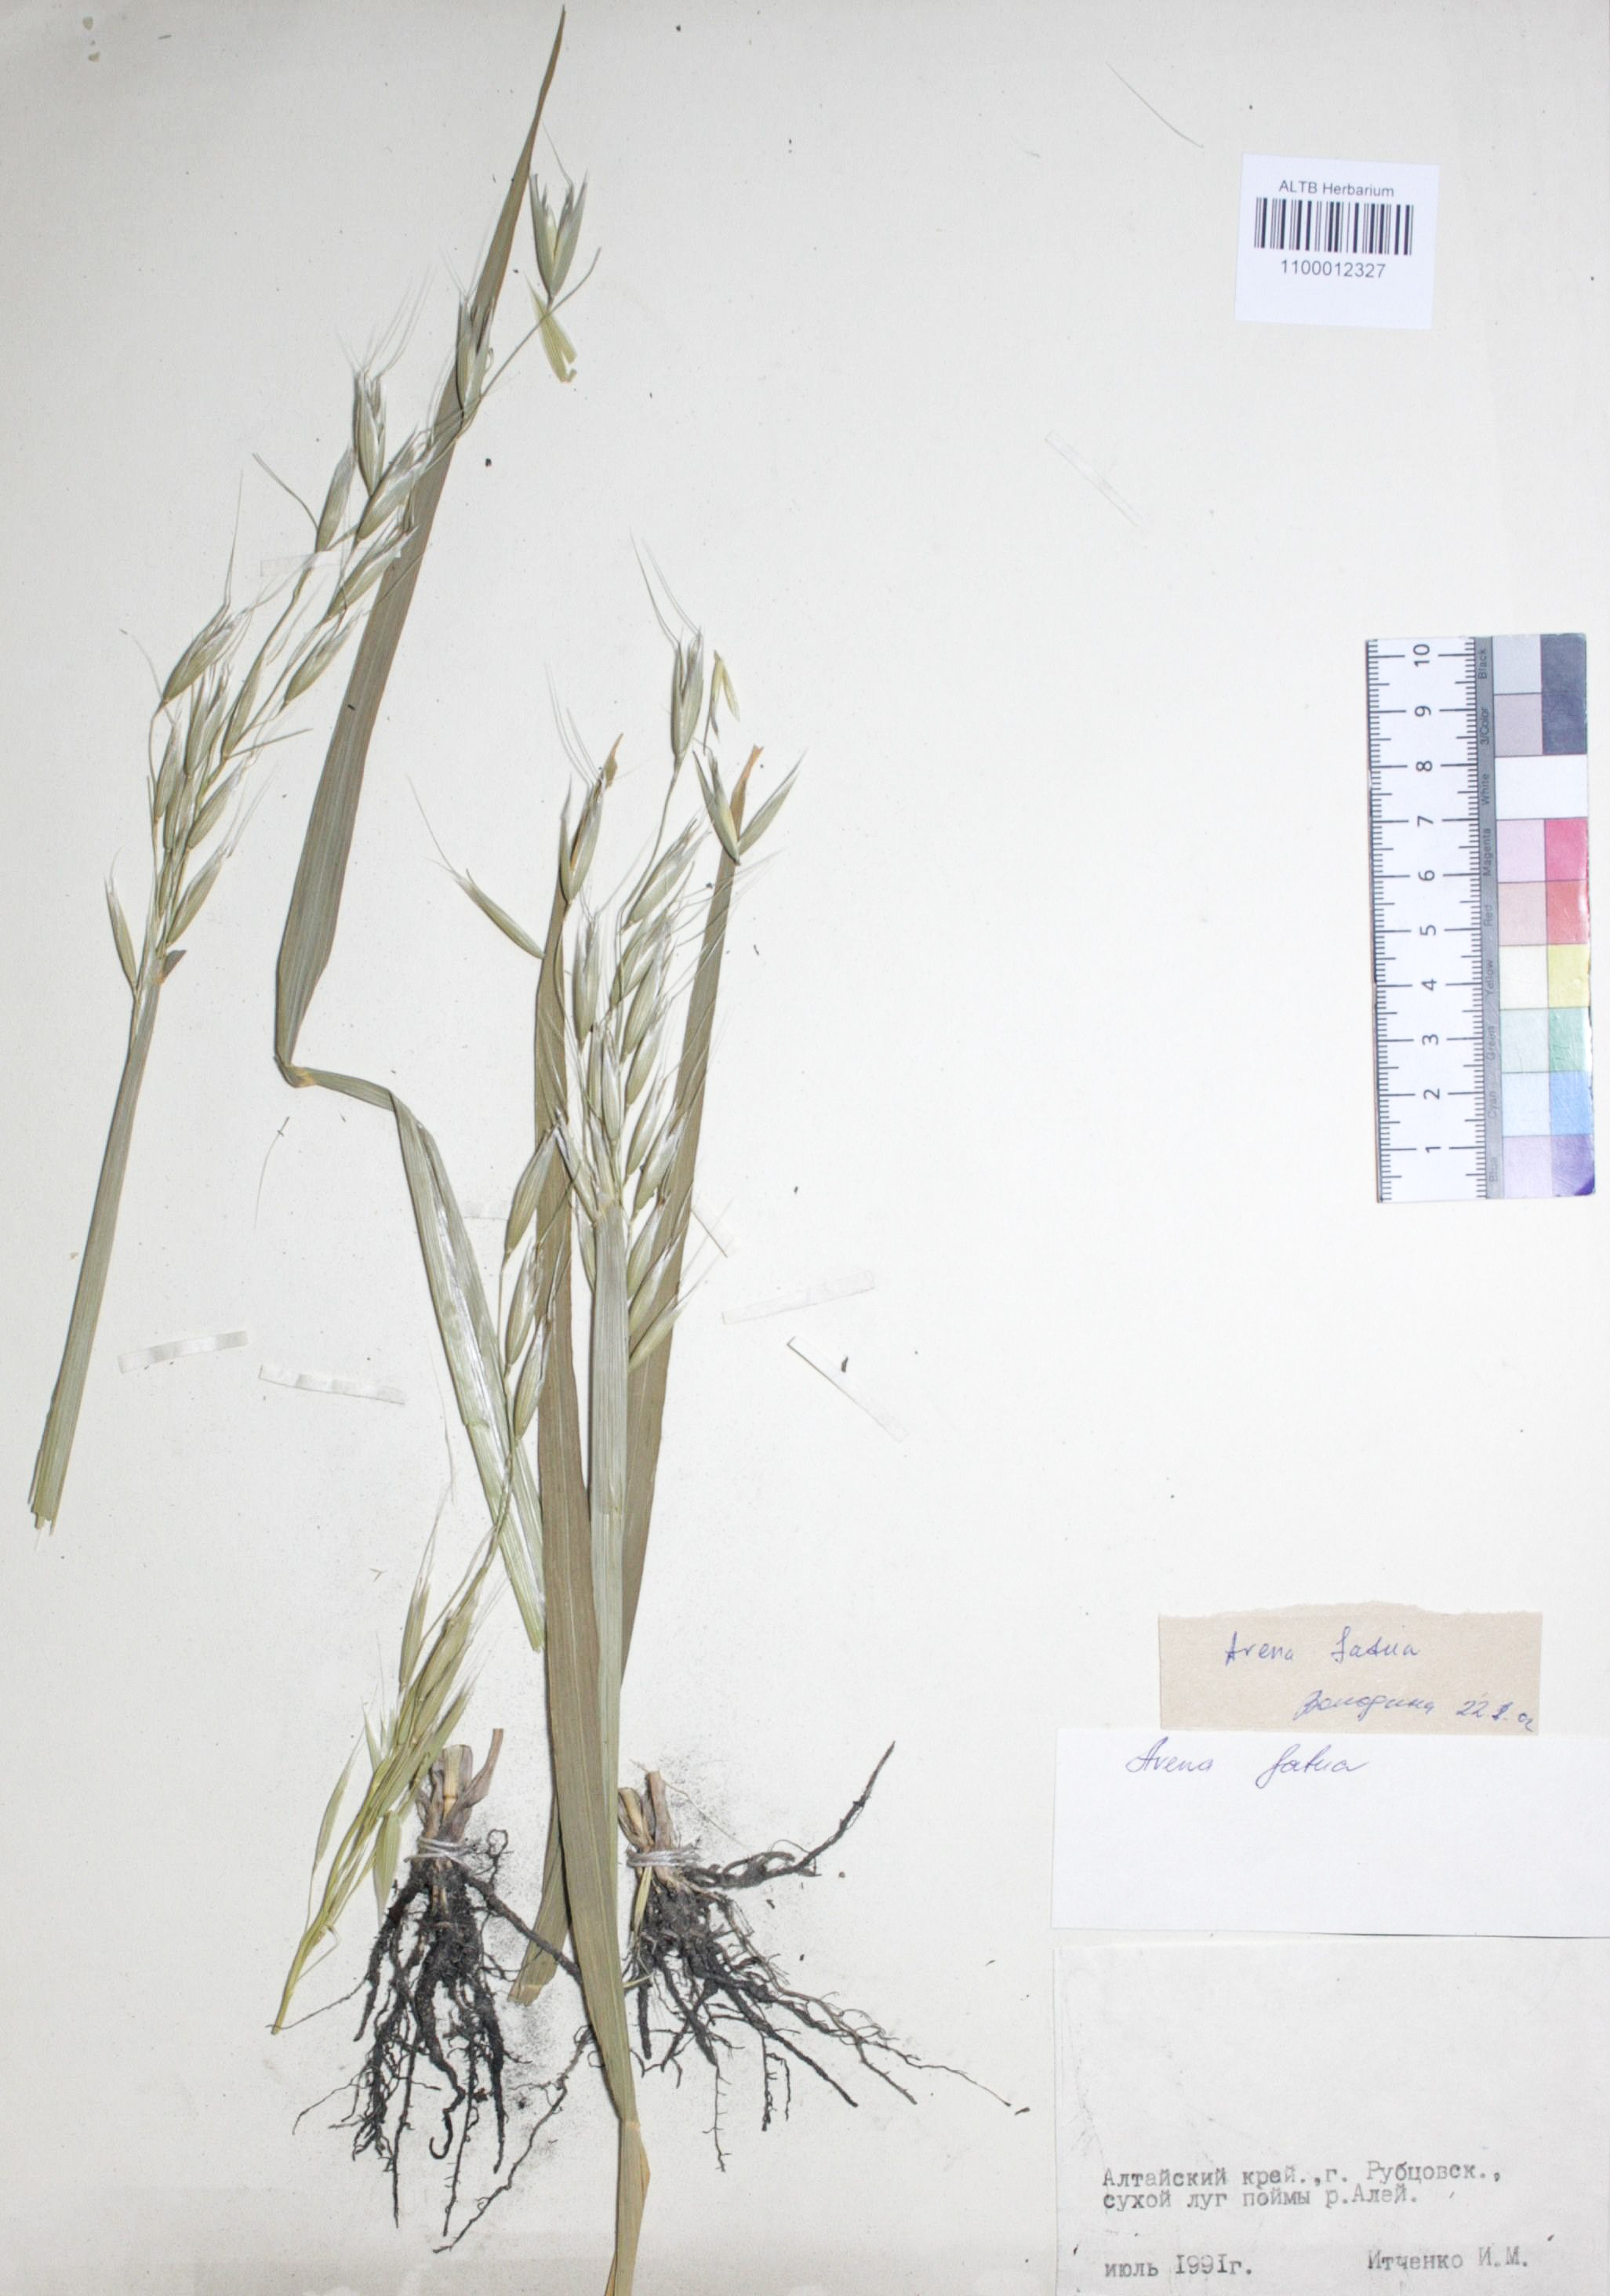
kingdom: Plantae
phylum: Tracheophyta
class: Liliopsida
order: Poales
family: Poaceae
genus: Avena
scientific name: Avena fatua
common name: Wild oat
